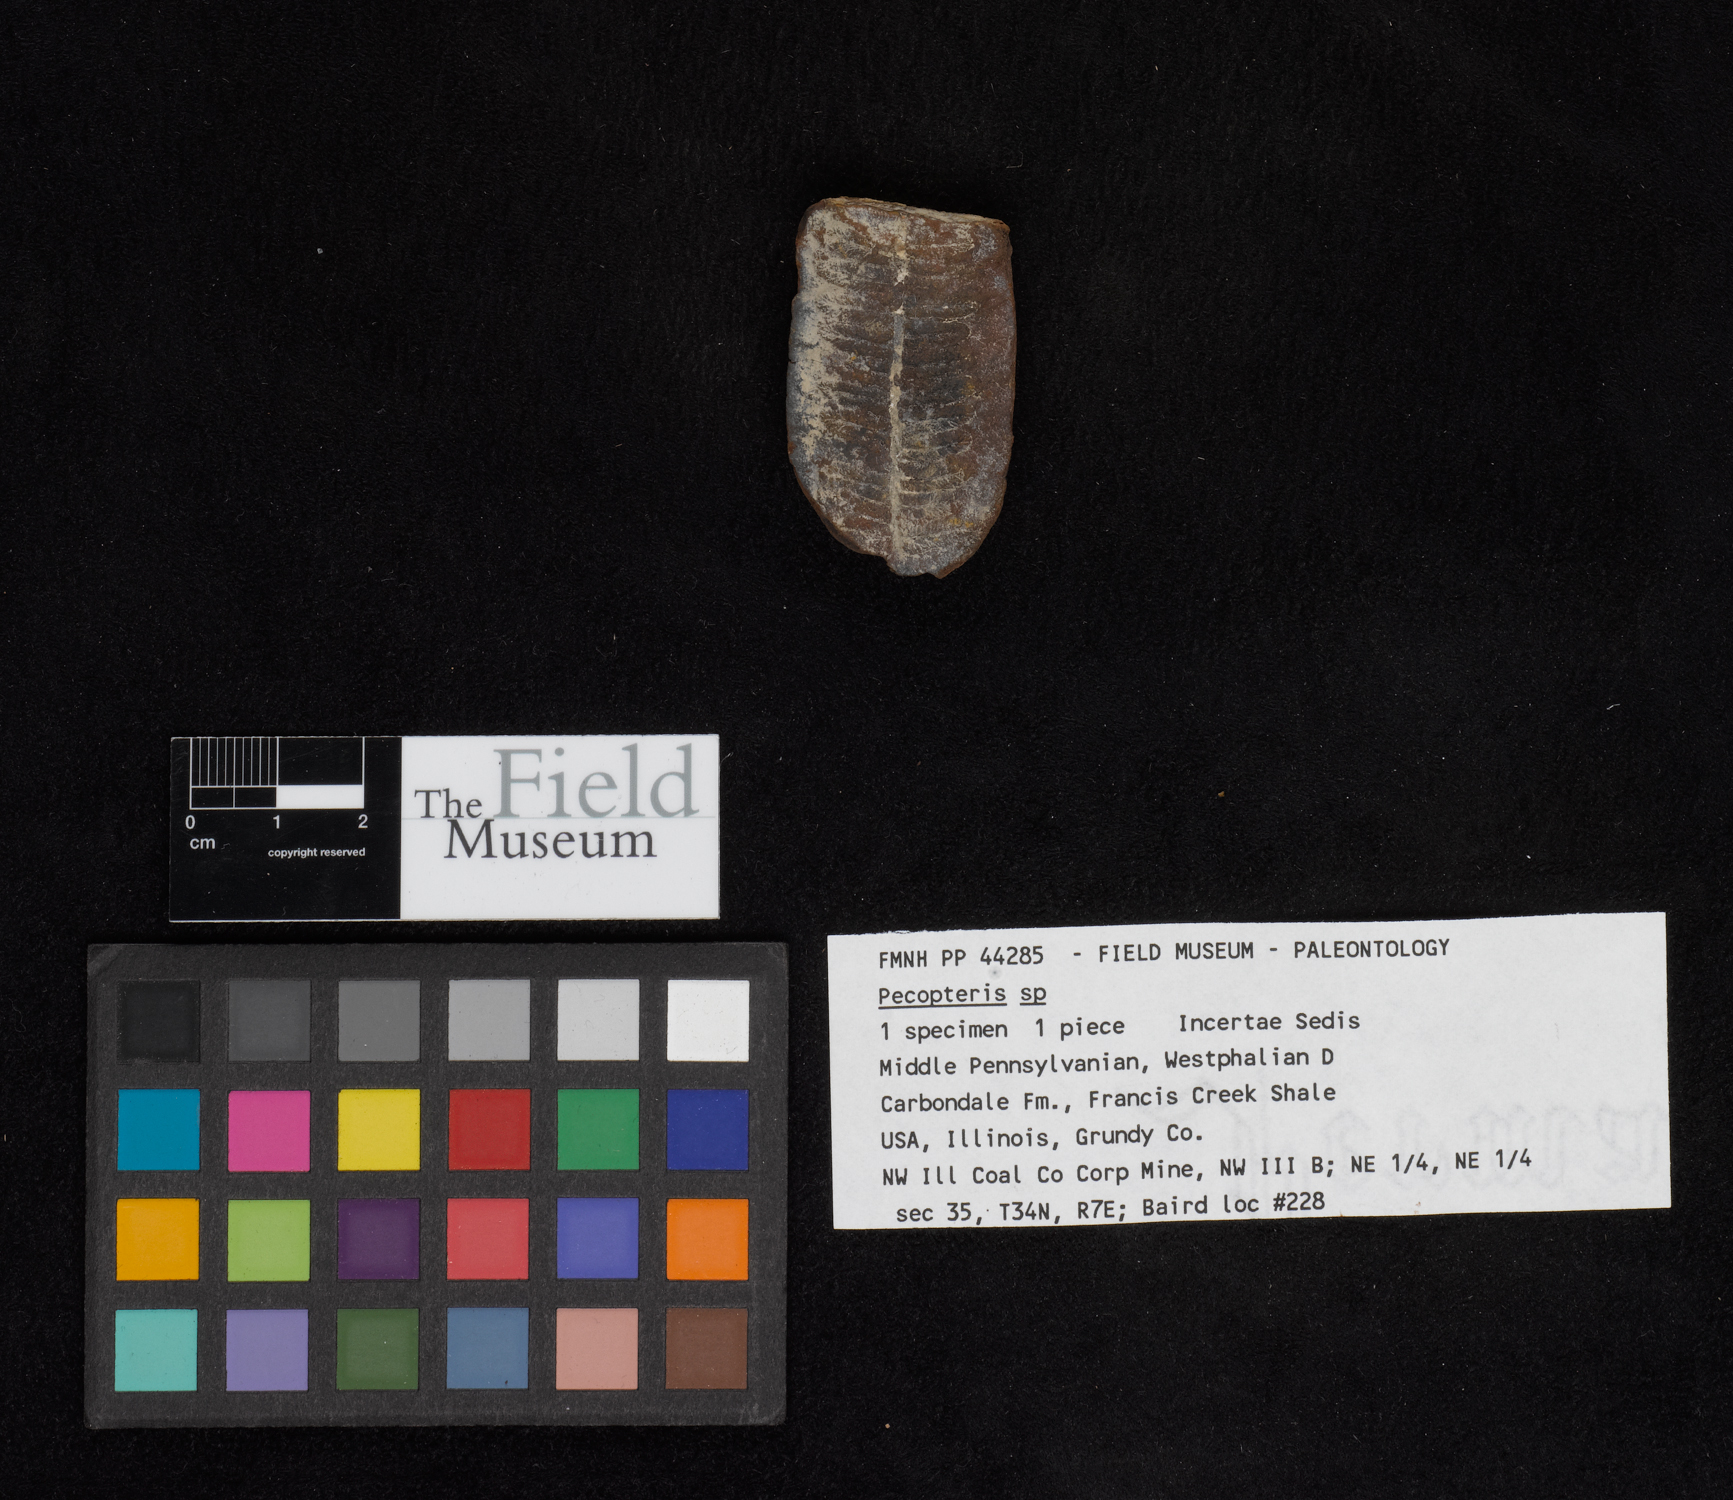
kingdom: Plantae
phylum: Tracheophyta
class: Polypodiopsida
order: Marattiales
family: Asterothecaceae
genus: Pecopteris
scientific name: Pecopteris
